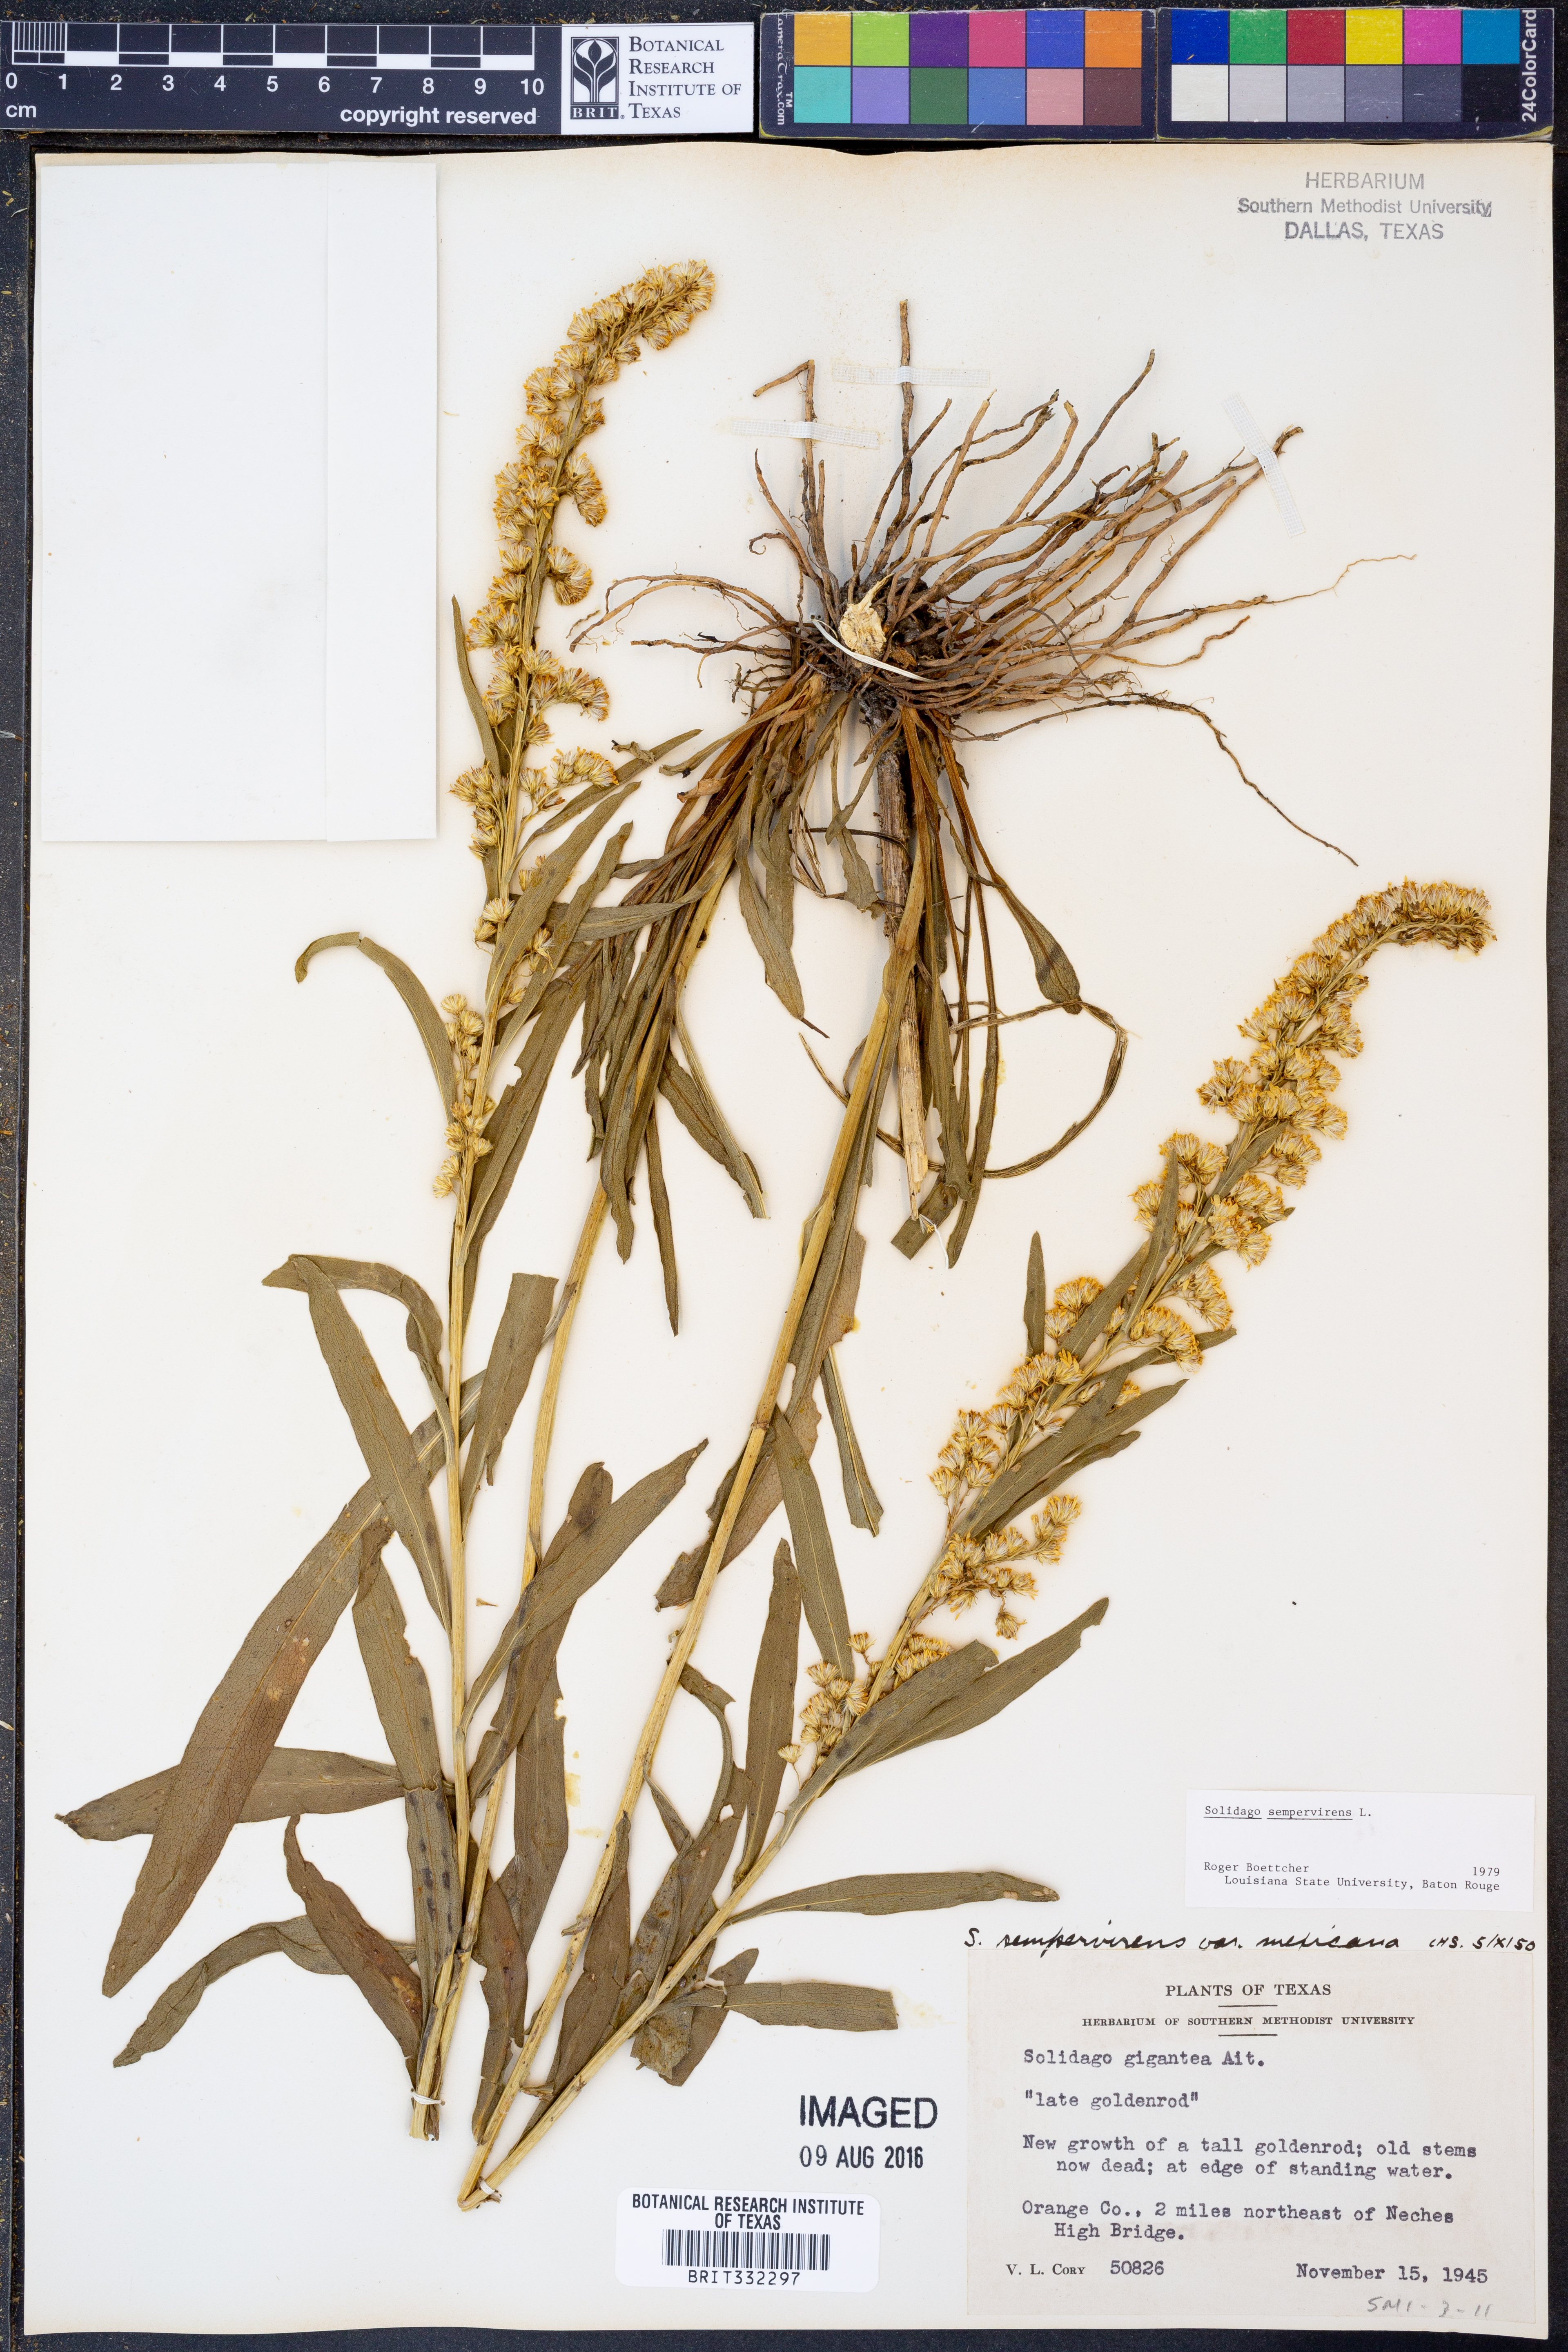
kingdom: Plantae
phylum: Tracheophyta
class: Magnoliopsida
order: Asterales
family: Asteraceae
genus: Solidago
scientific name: Solidago sempervirens
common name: Salt-marsh goldenrod
